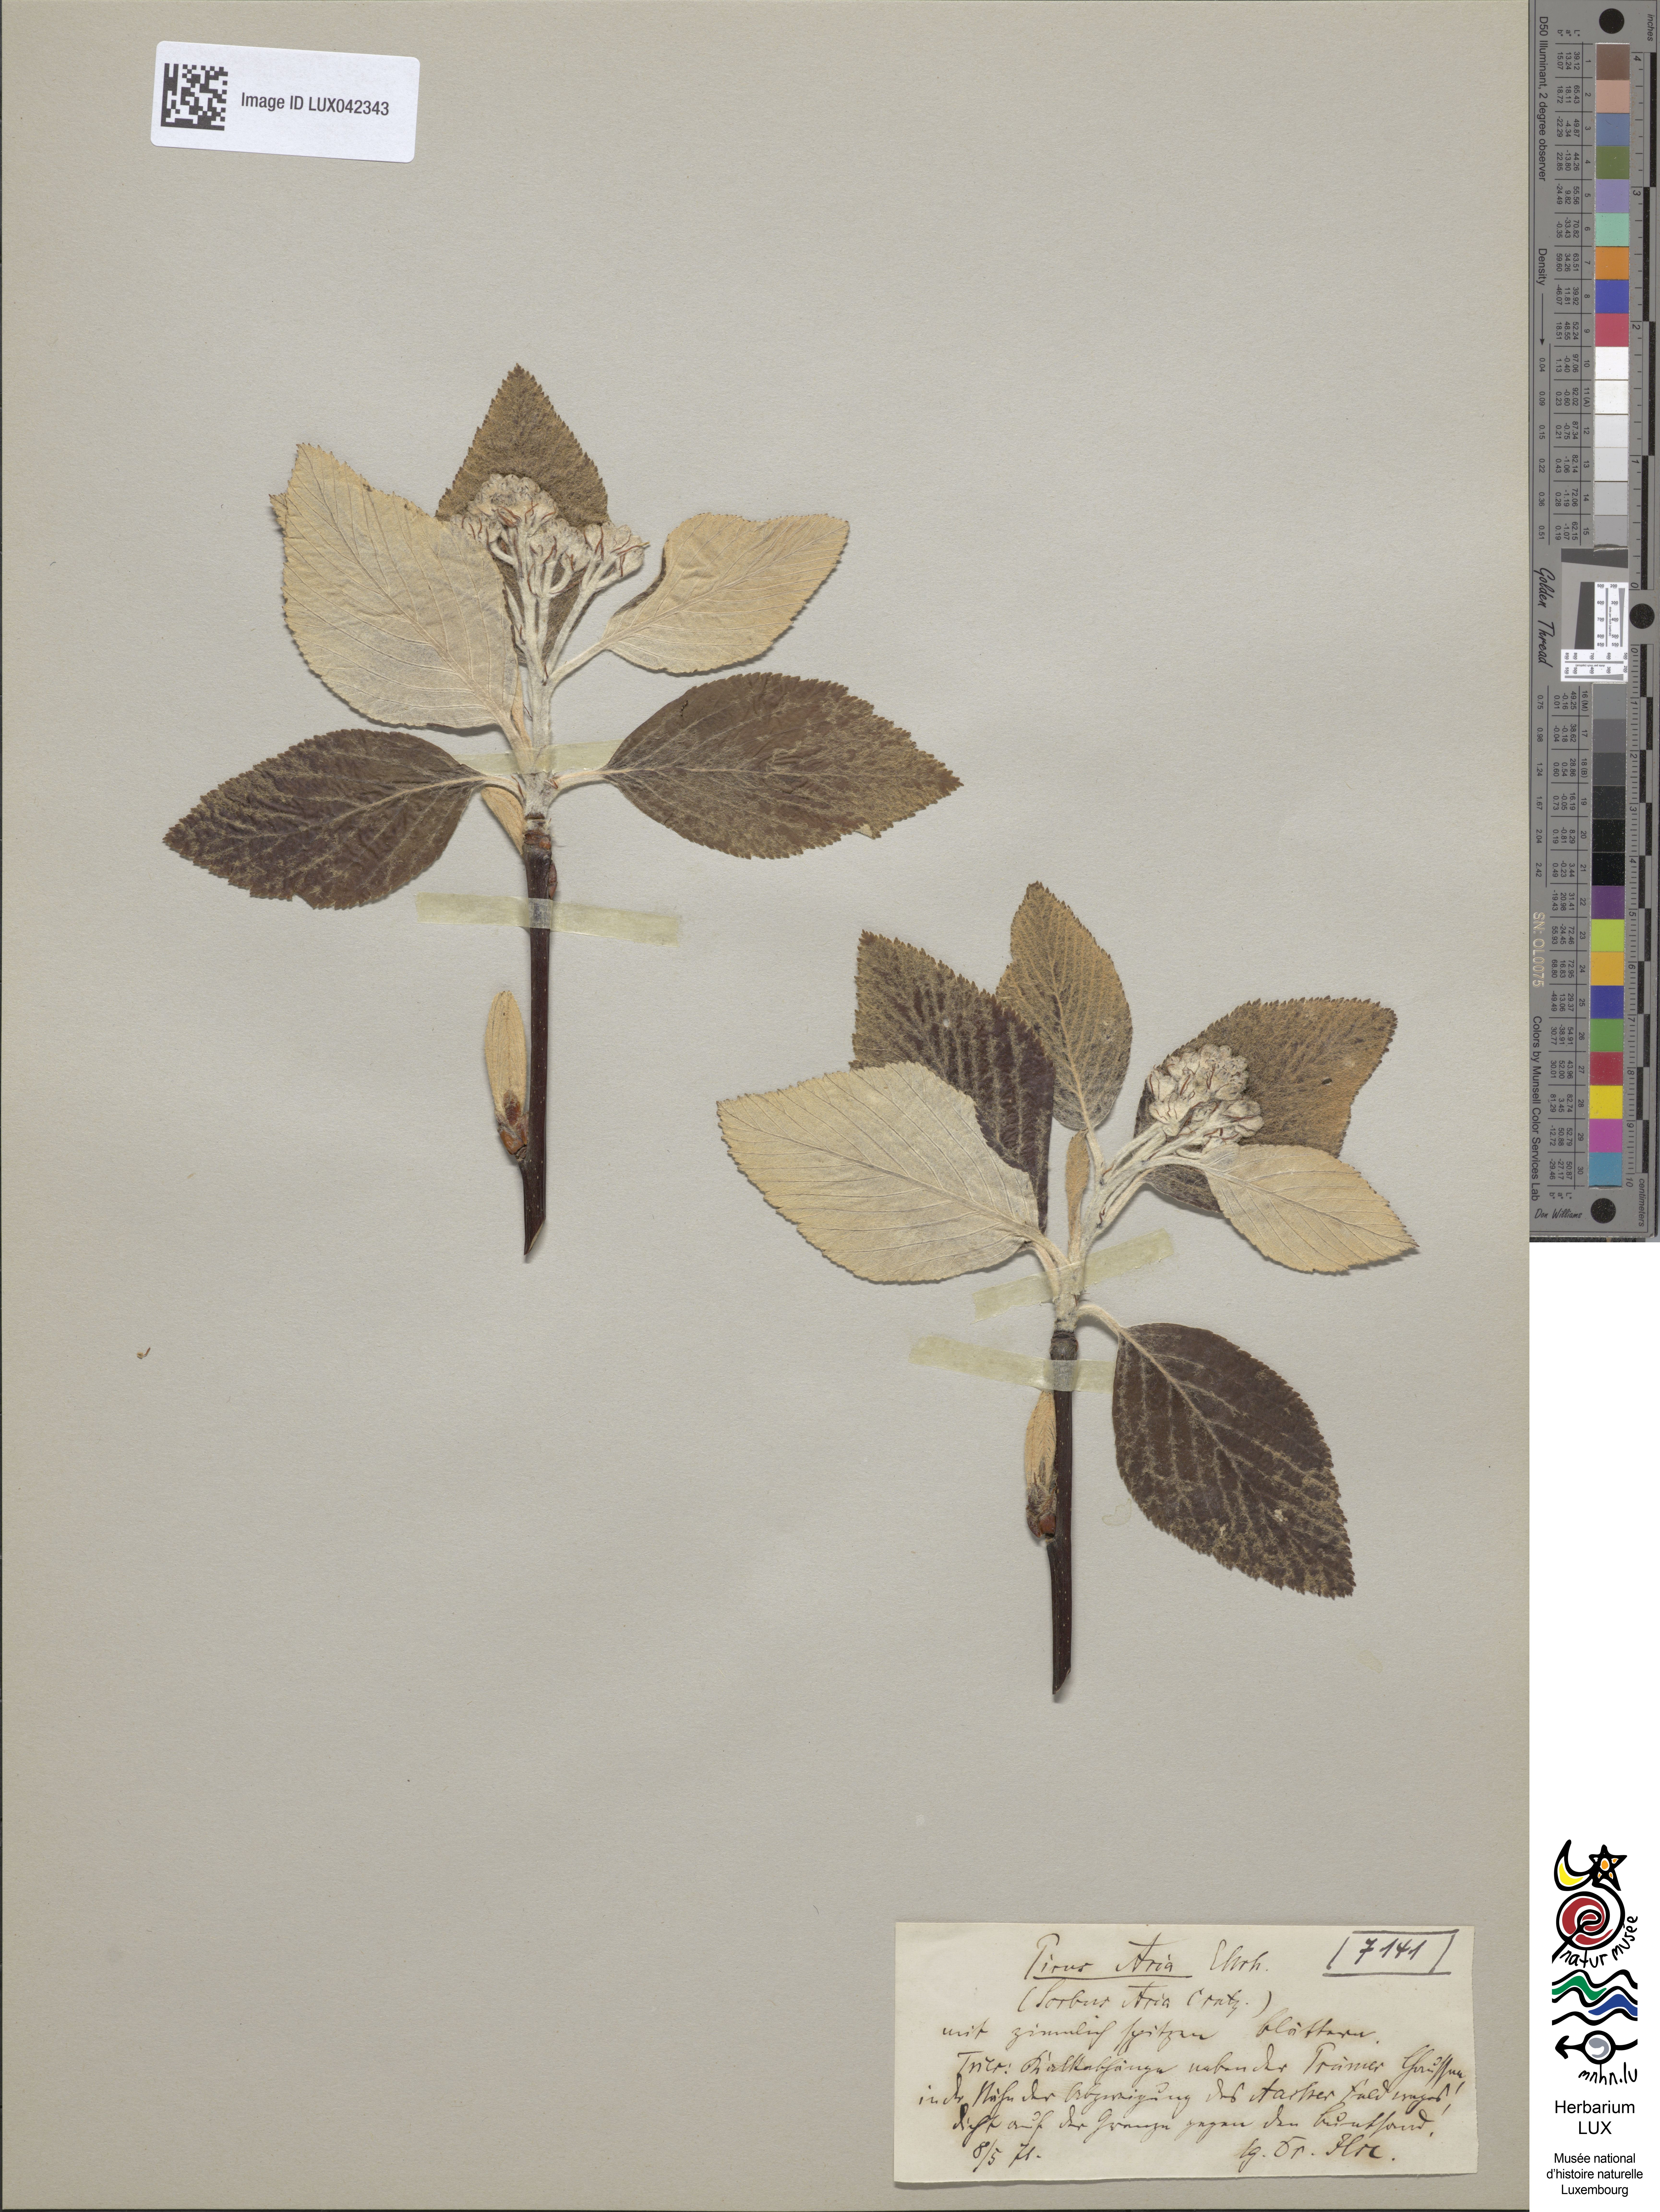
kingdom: Plantae
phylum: Tracheophyta
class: Magnoliopsida
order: Rosales
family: Rosaceae
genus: Aria
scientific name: Aria edulis
